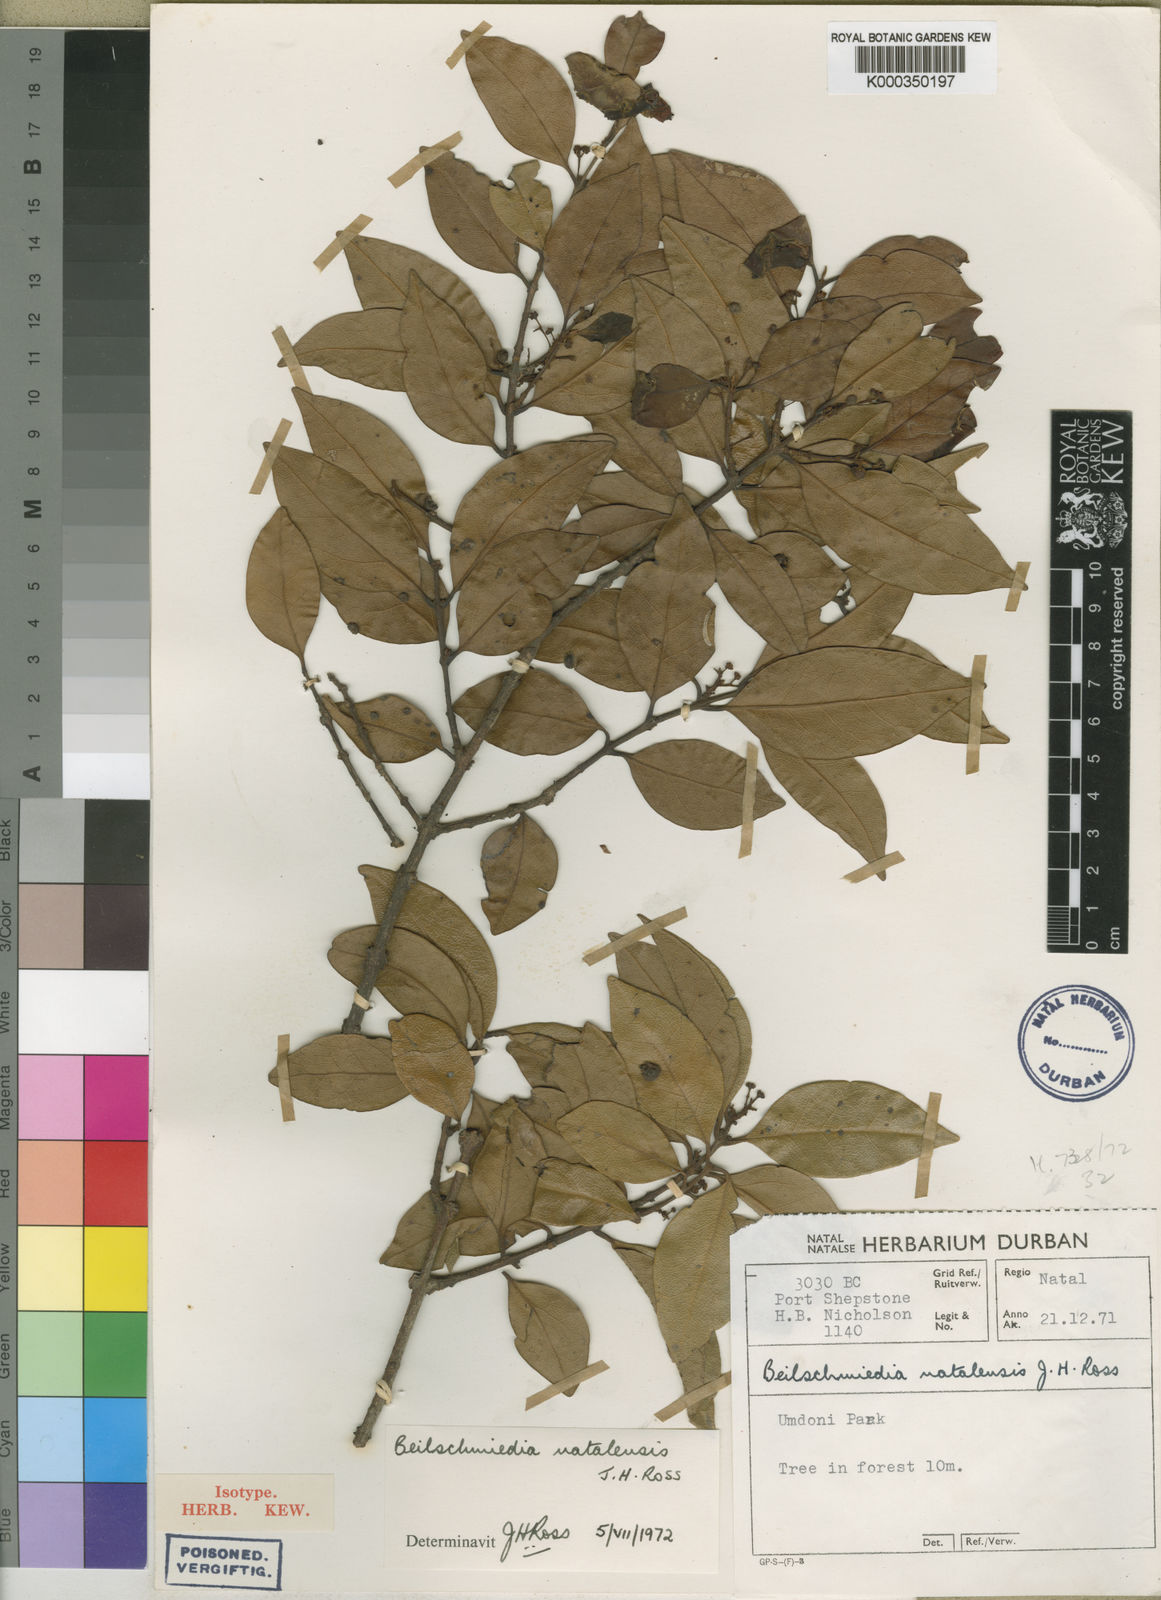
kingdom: Plantae
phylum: Tracheophyta
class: Magnoliopsida
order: Laurales
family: Lauraceae
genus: Cryptocarya
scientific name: Cryptocarya
